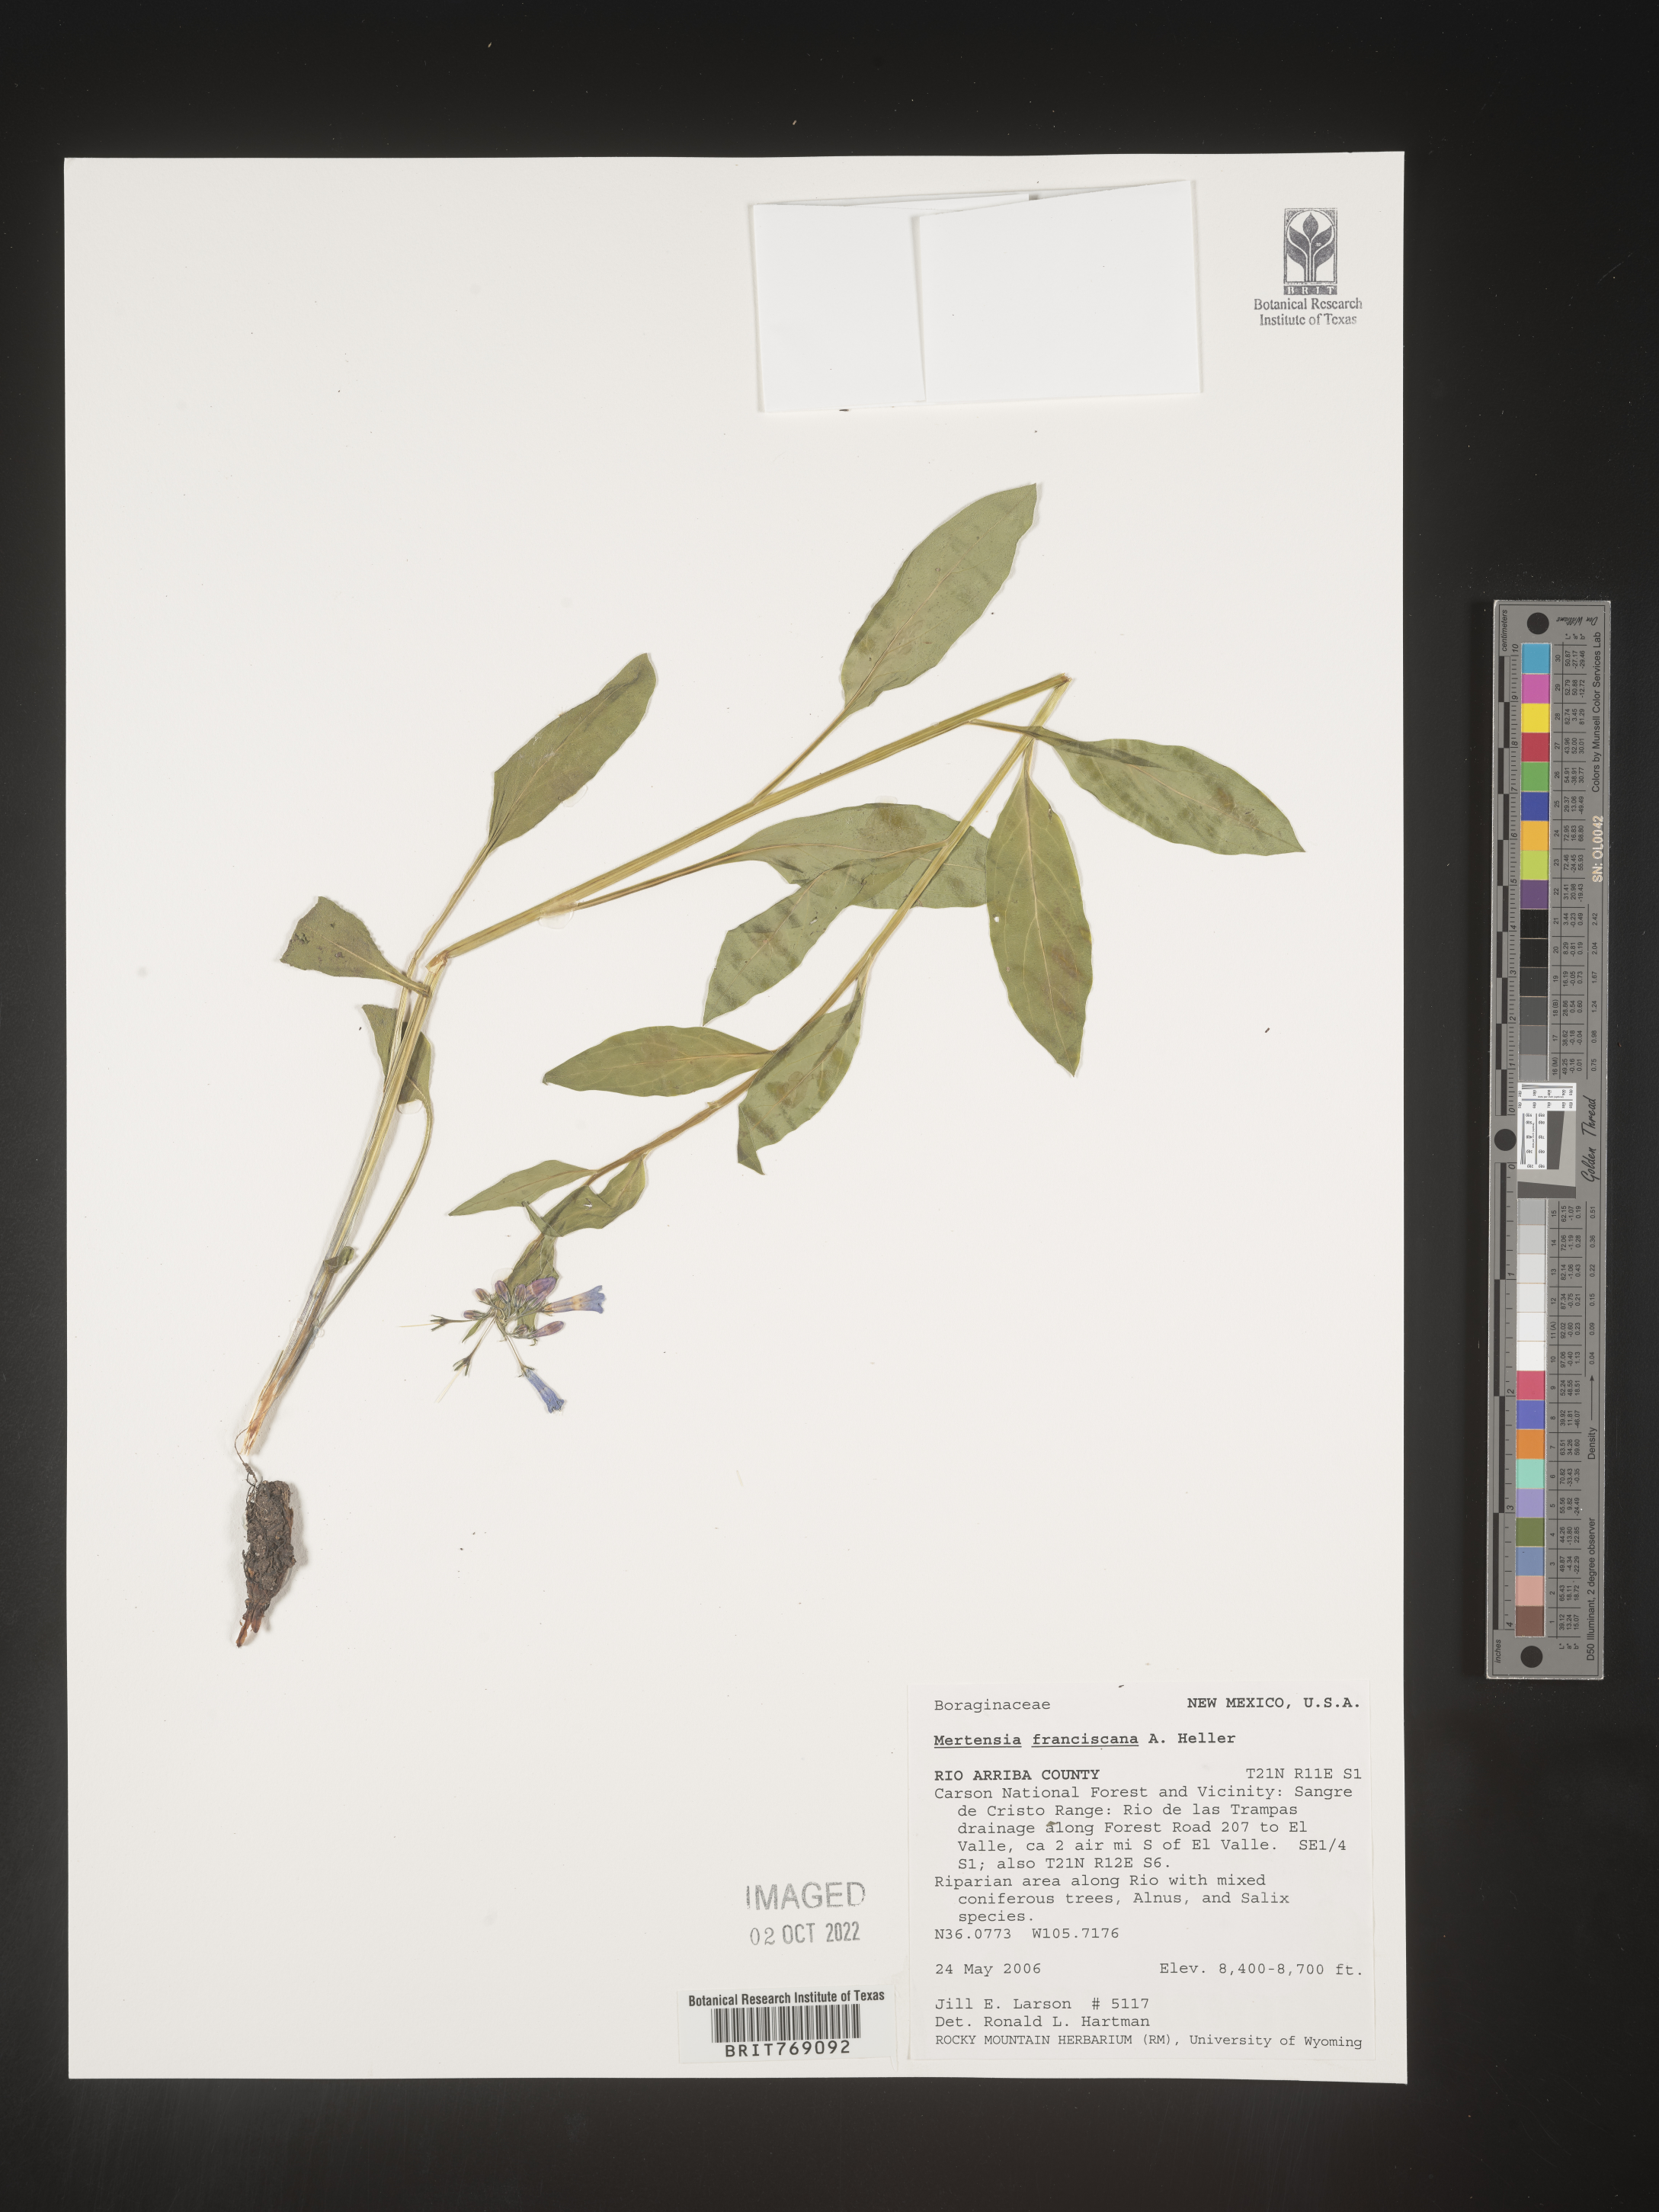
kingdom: Plantae
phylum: Tracheophyta
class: Magnoliopsida
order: Boraginales
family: Boraginaceae
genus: Mertensia
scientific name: Mertensia
